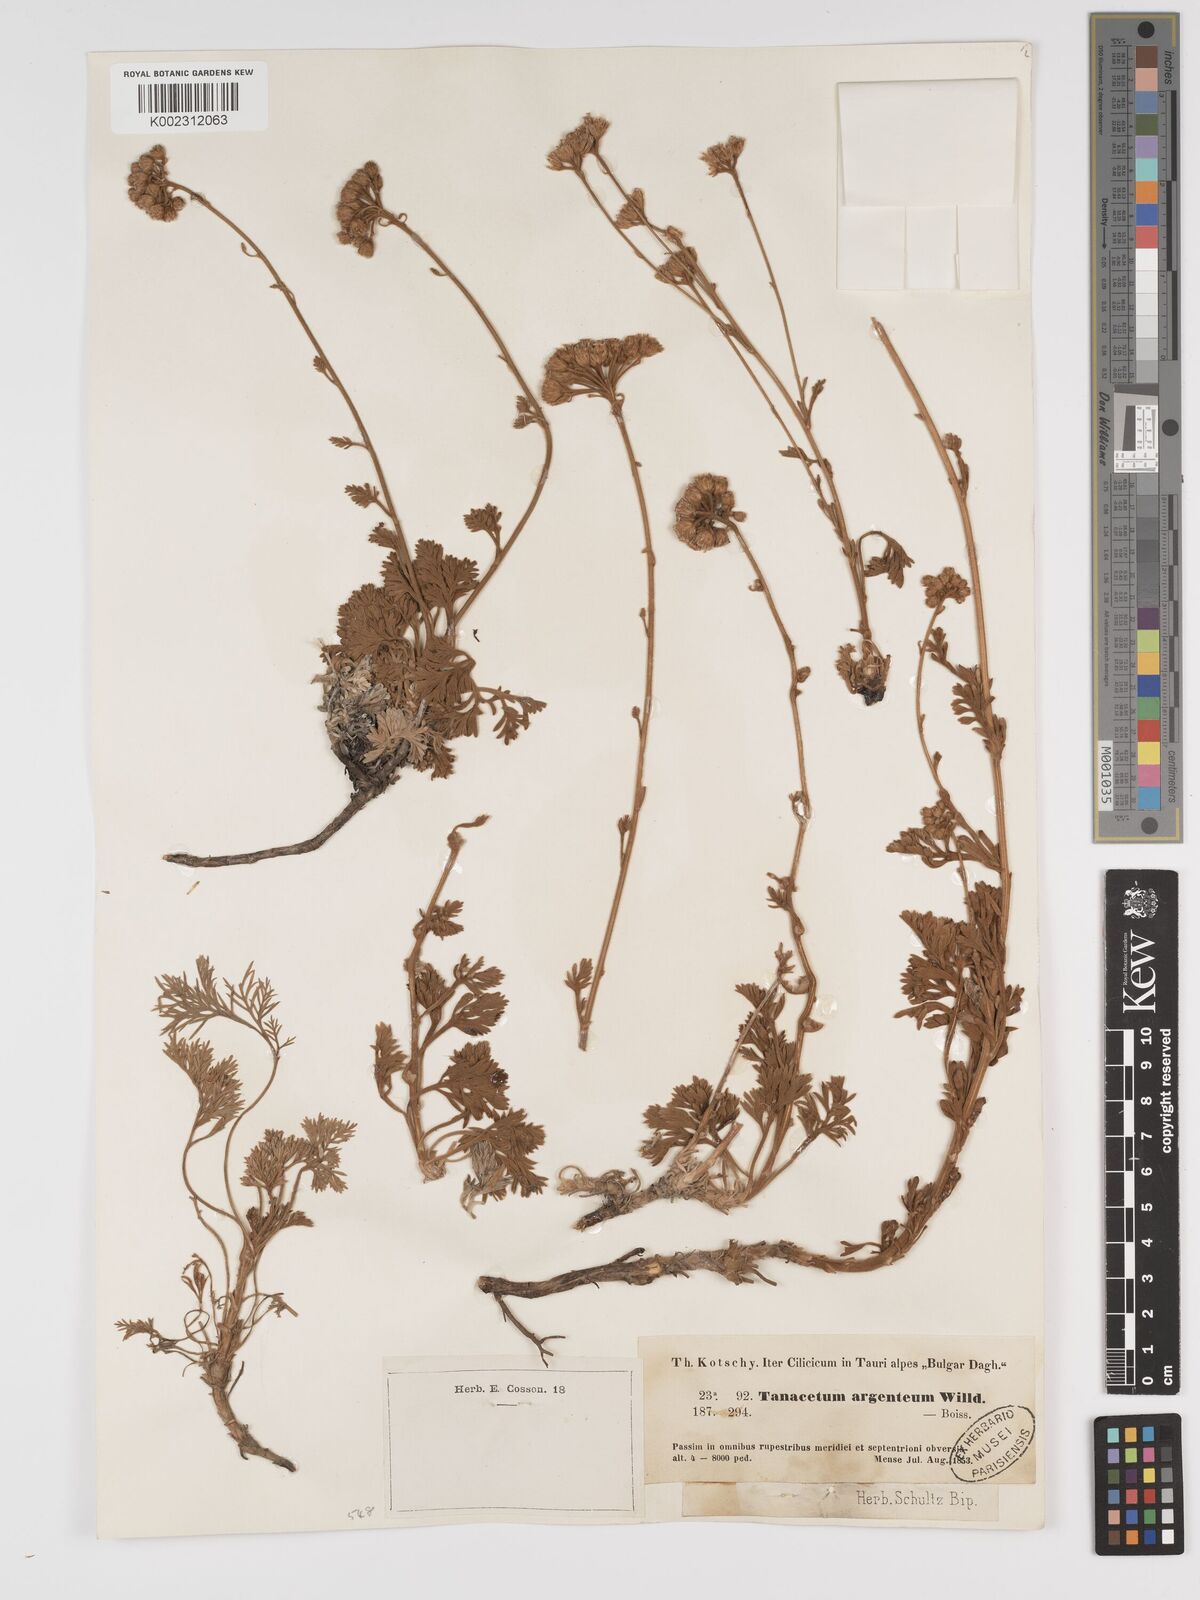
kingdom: Plantae
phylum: Tracheophyta
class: Magnoliopsida
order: Asterales
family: Asteraceae
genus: Tanacetum
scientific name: Tanacetum argenteum
